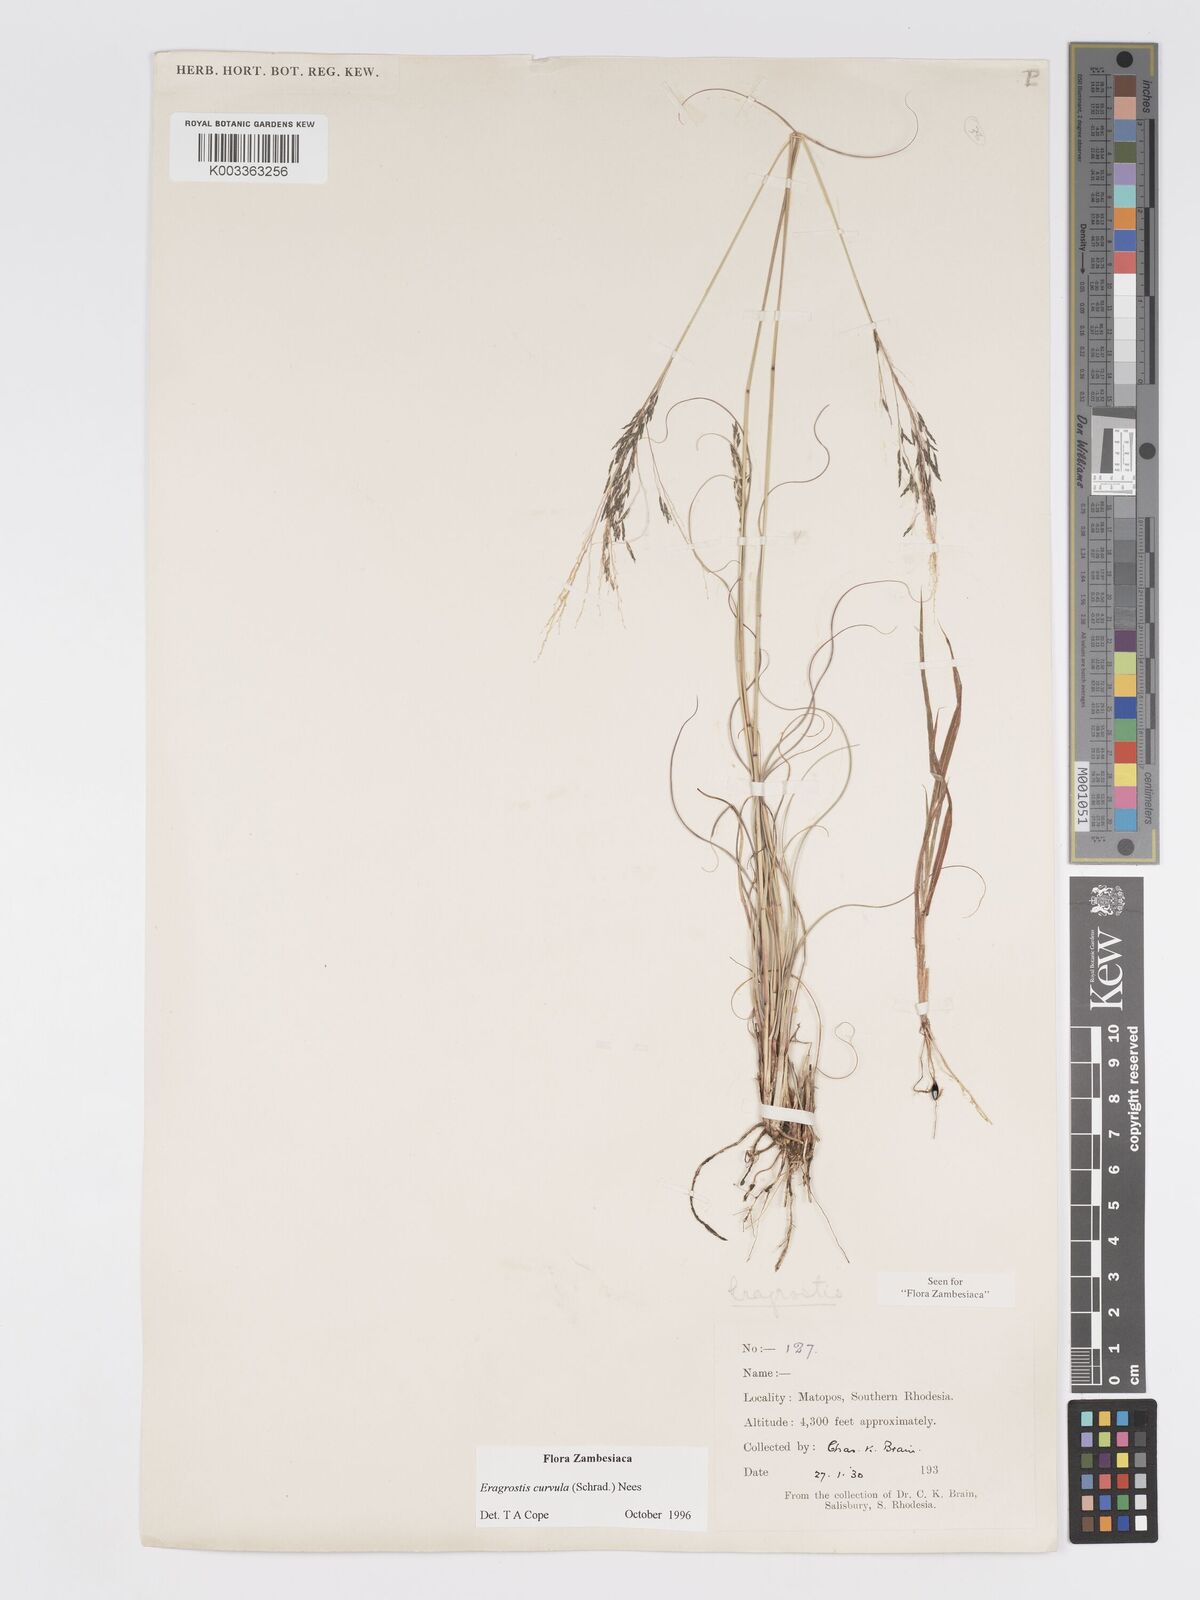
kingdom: Plantae
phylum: Tracheophyta
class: Liliopsida
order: Poales
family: Poaceae
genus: Eragrostis
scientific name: Eragrostis curvula
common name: African love-grass
